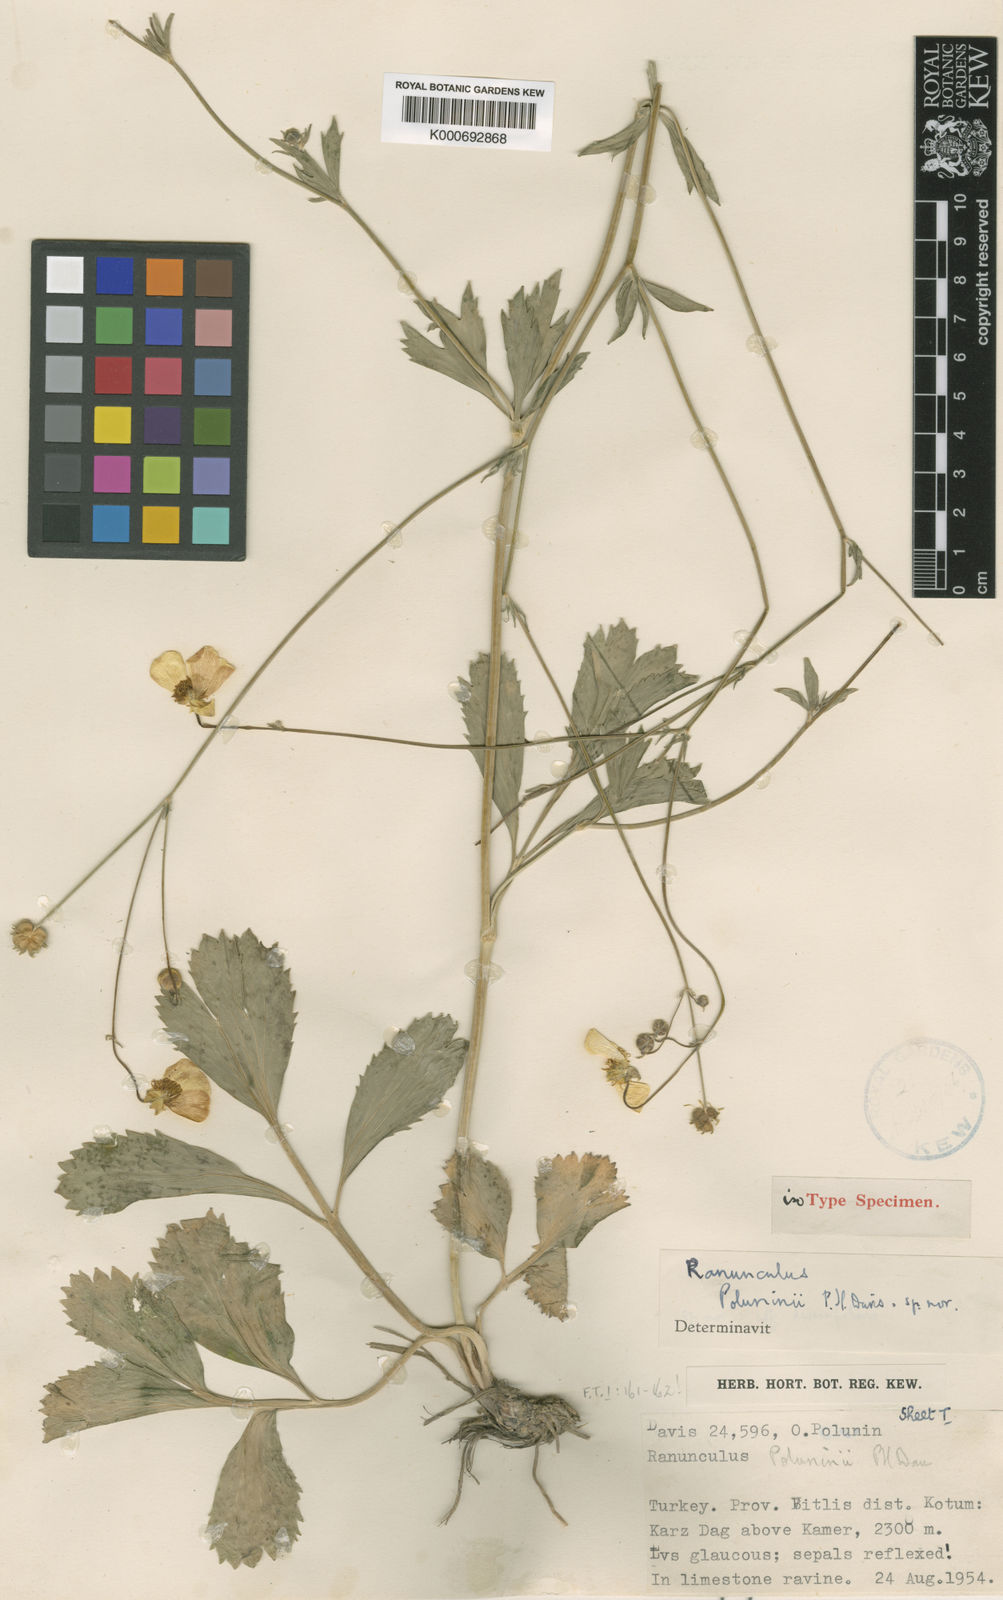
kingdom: Plantae
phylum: Tracheophyta
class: Magnoliopsida
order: Ranunculales
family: Ranunculaceae
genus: Ranunculus
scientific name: Ranunculus poluninii
